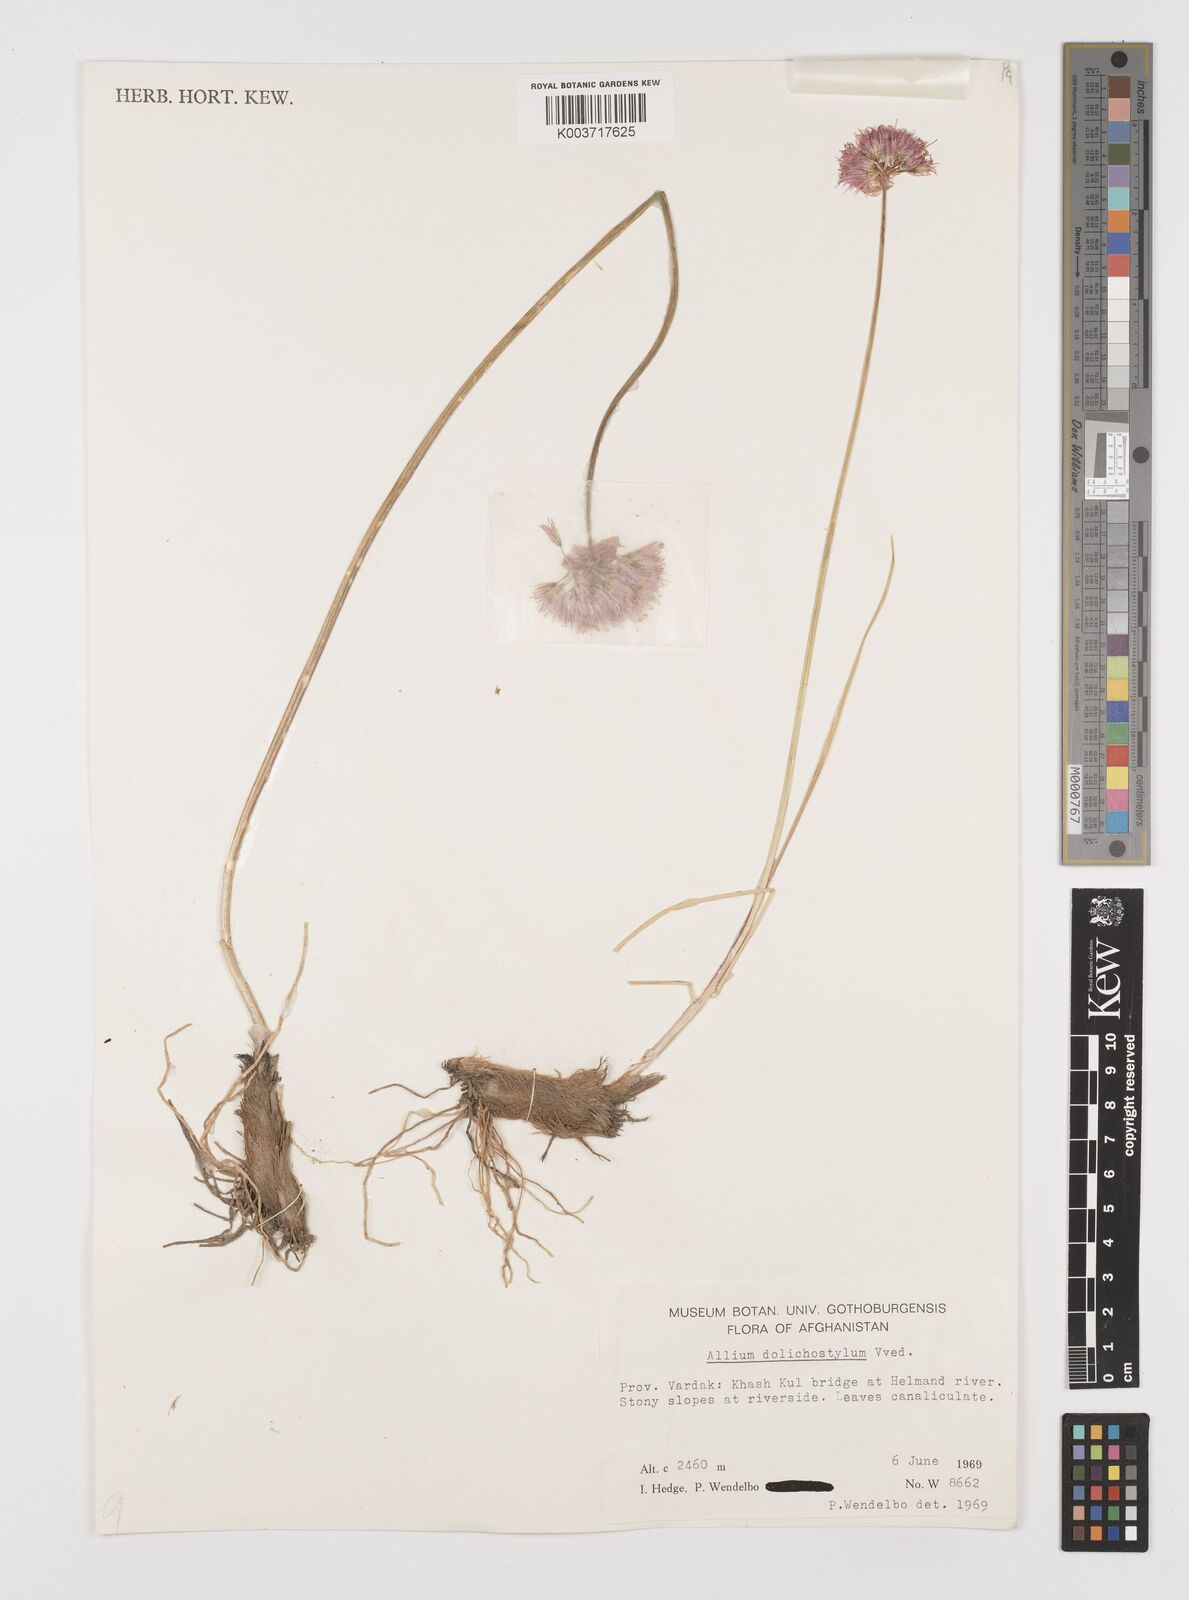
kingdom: Plantae
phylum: Tracheophyta
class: Liliopsida
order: Asparagales
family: Amaryllidaceae
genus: Allium
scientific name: Allium dolichomischum
